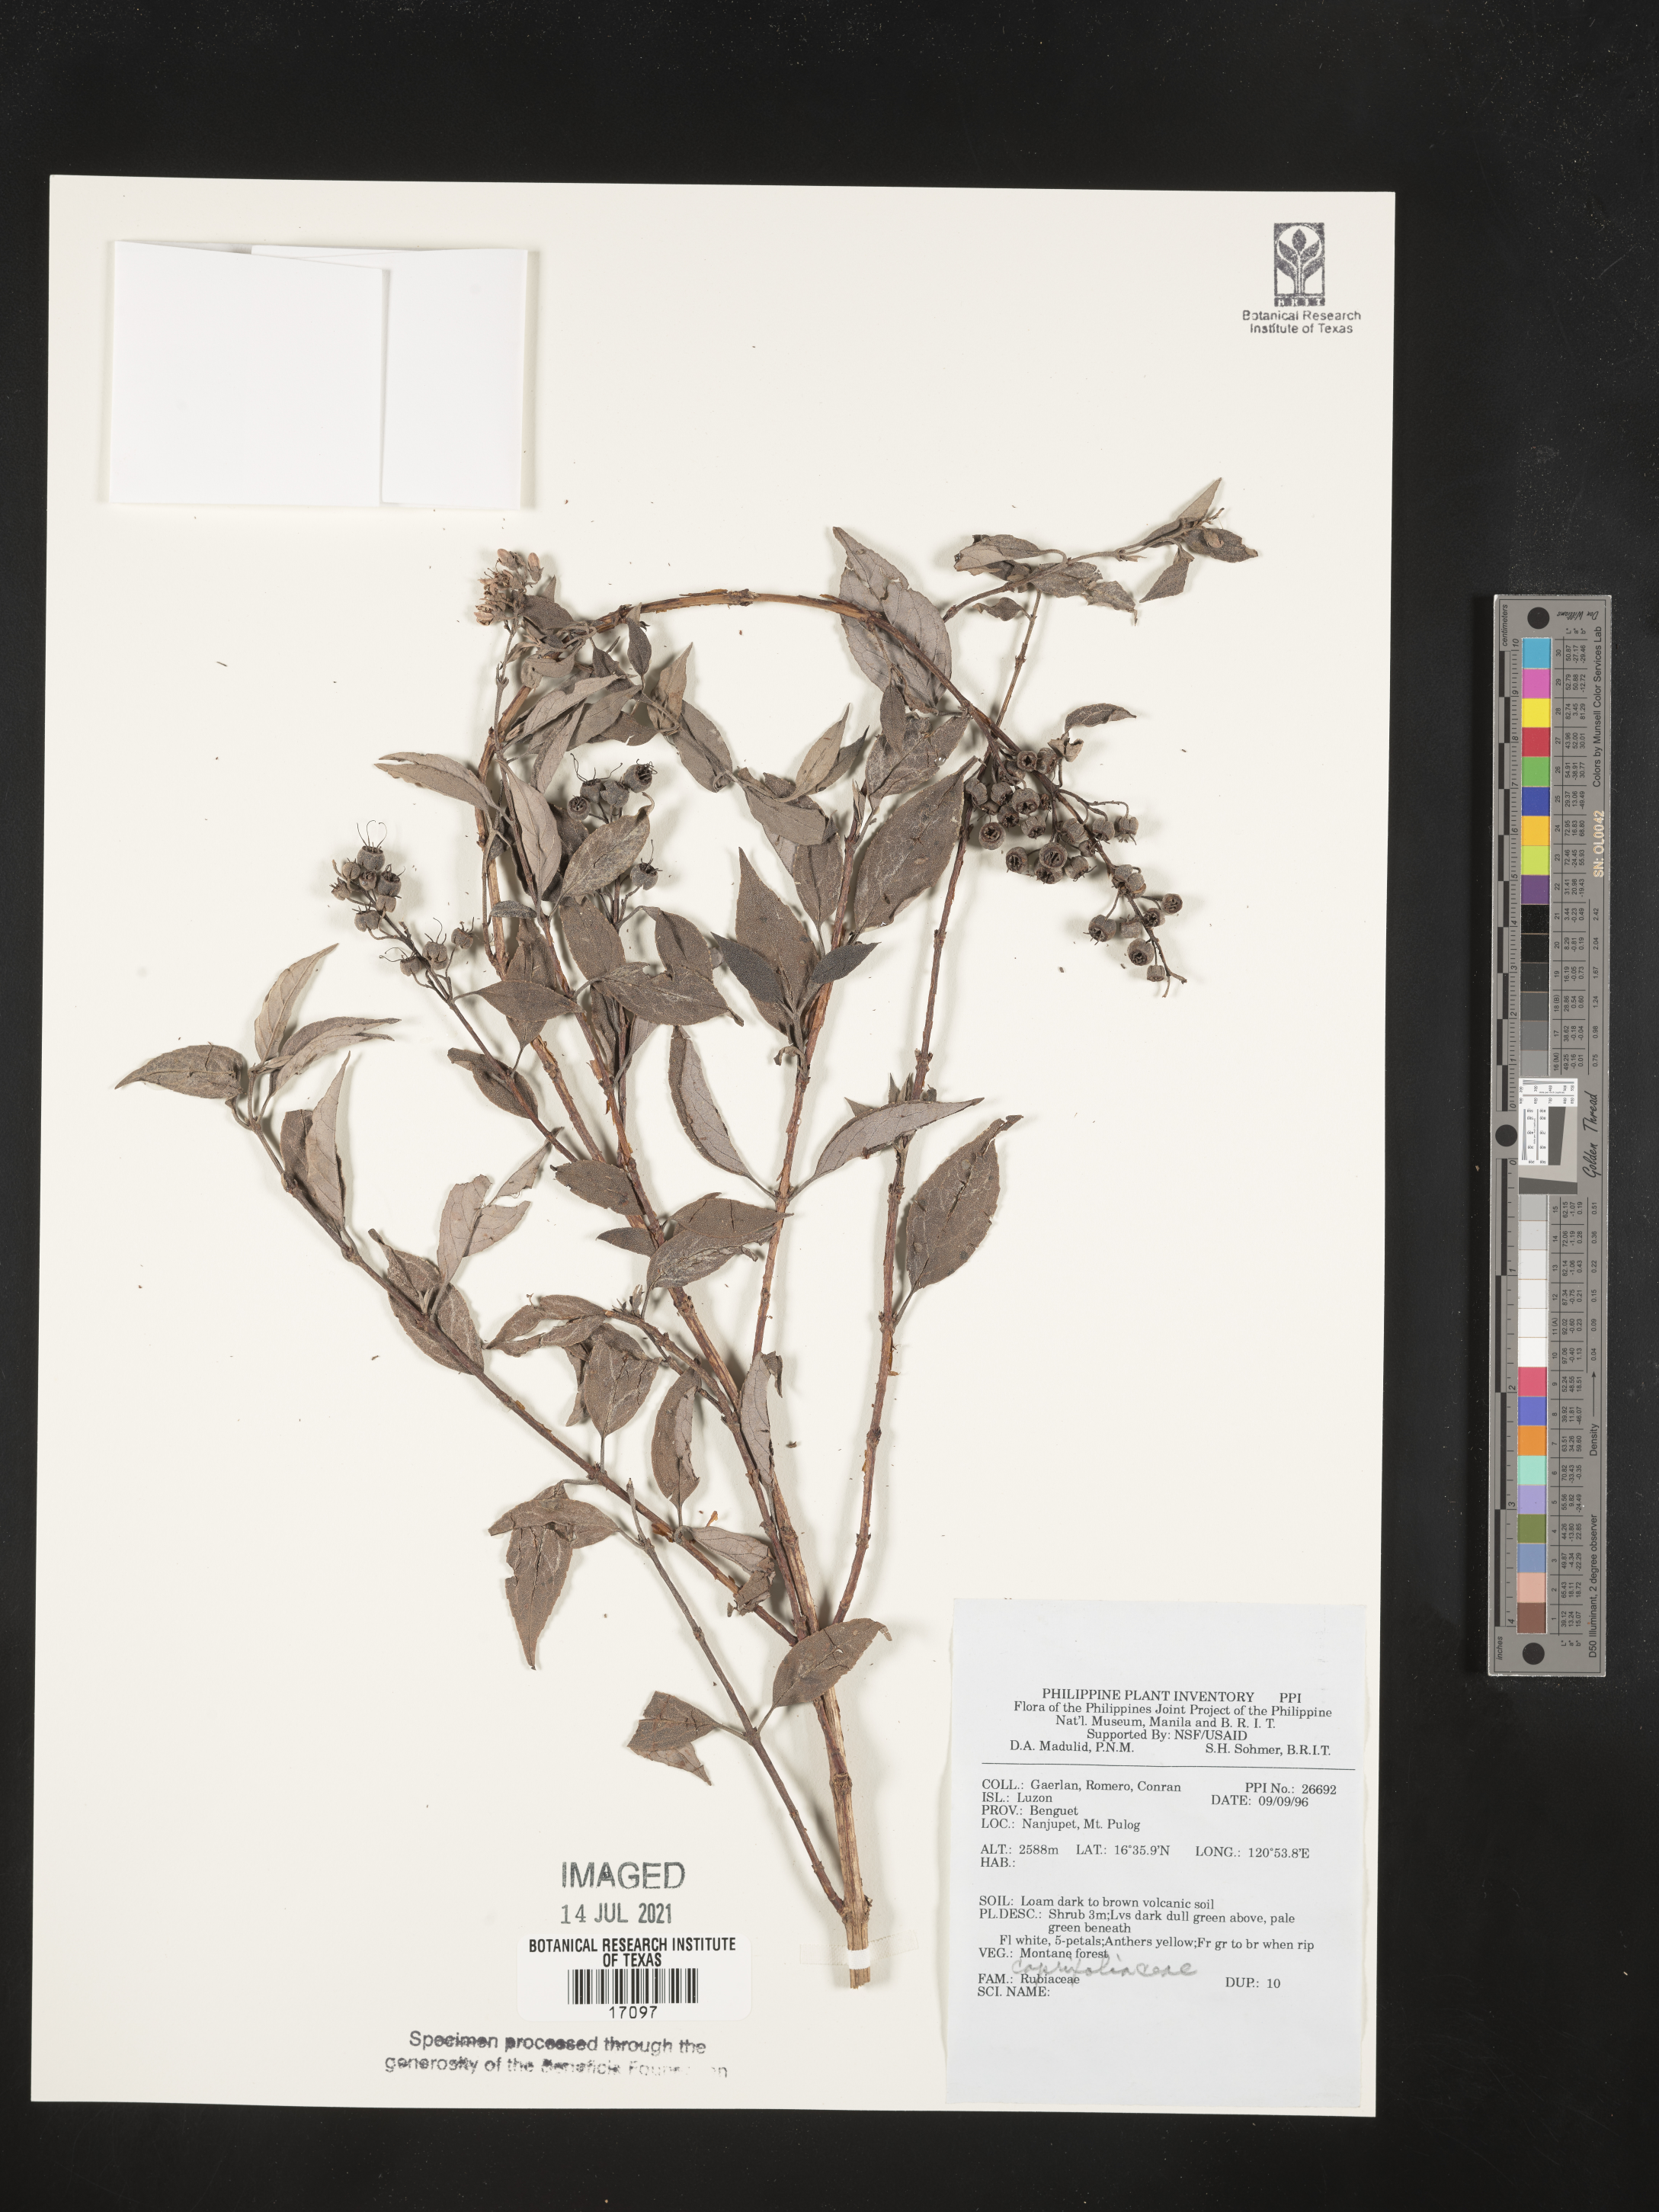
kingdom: Plantae
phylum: Tracheophyta
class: Magnoliopsida
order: Dipsacales
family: Caprifoliaceae
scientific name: Caprifoliaceae
